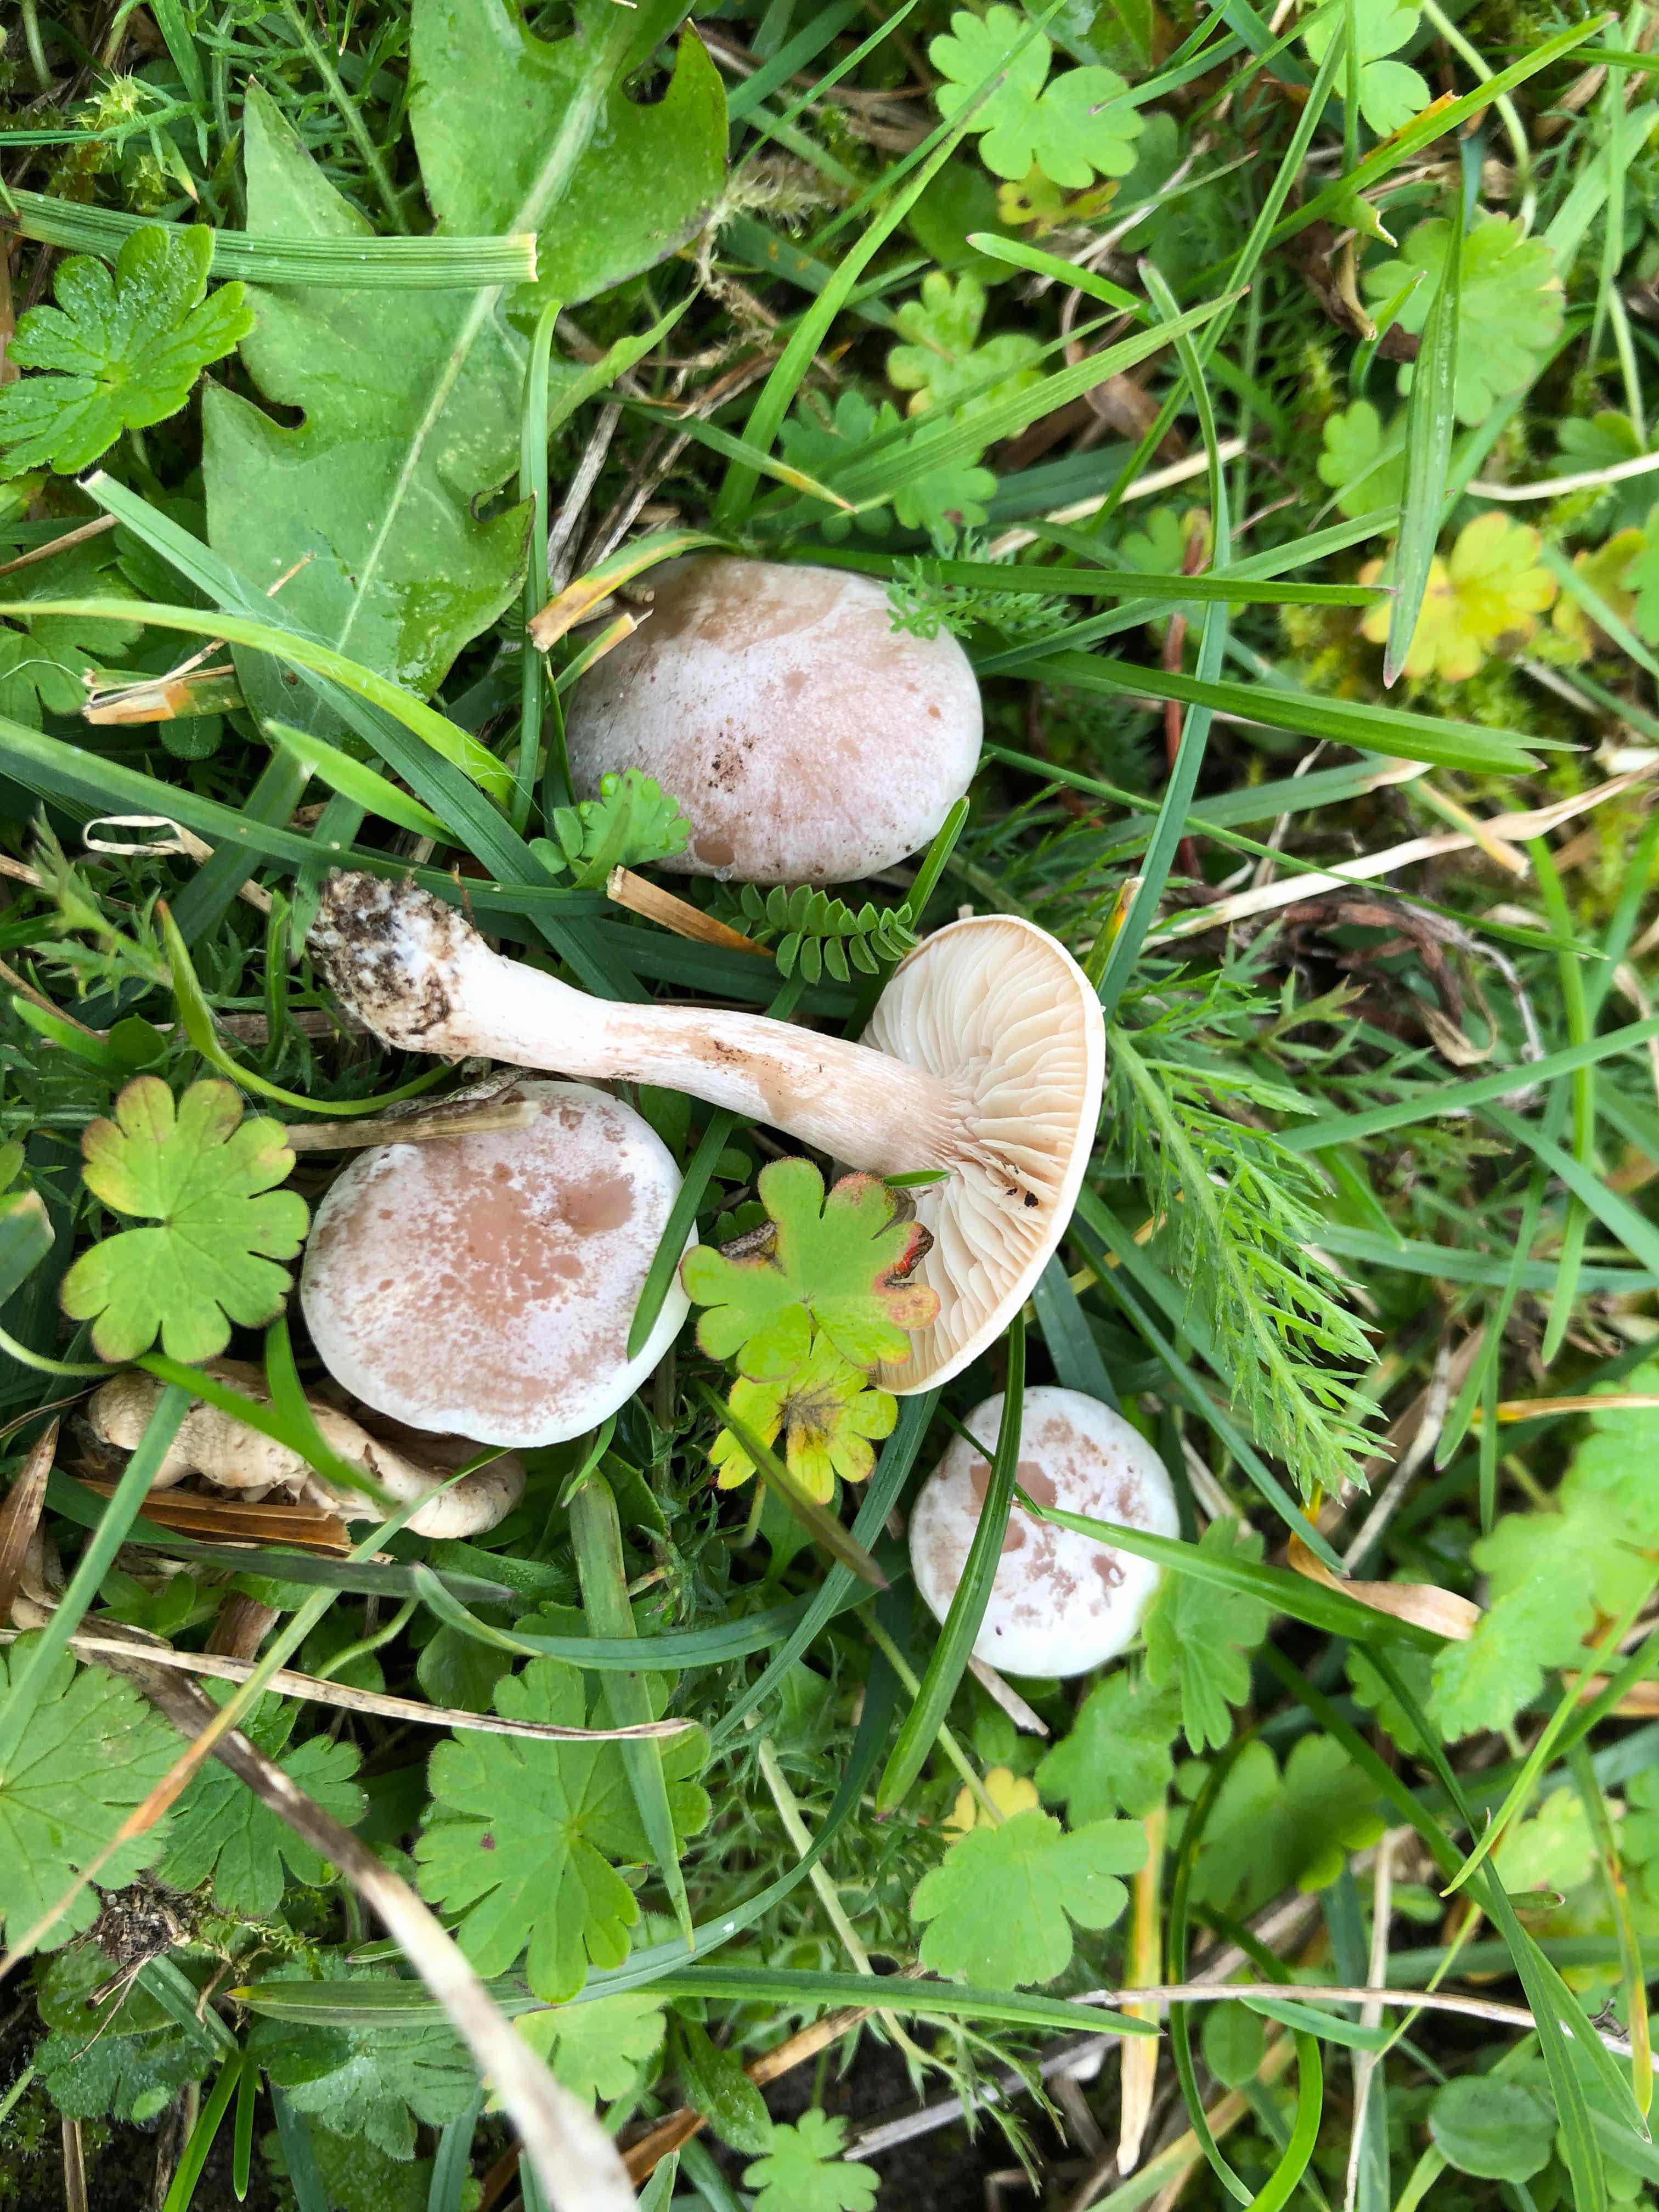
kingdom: Fungi
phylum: Basidiomycota
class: Agaricomycetes
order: Agaricales
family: Tricholomataceae
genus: Clitocybe
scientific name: Clitocybe rivulosa
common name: eng-tragthat
